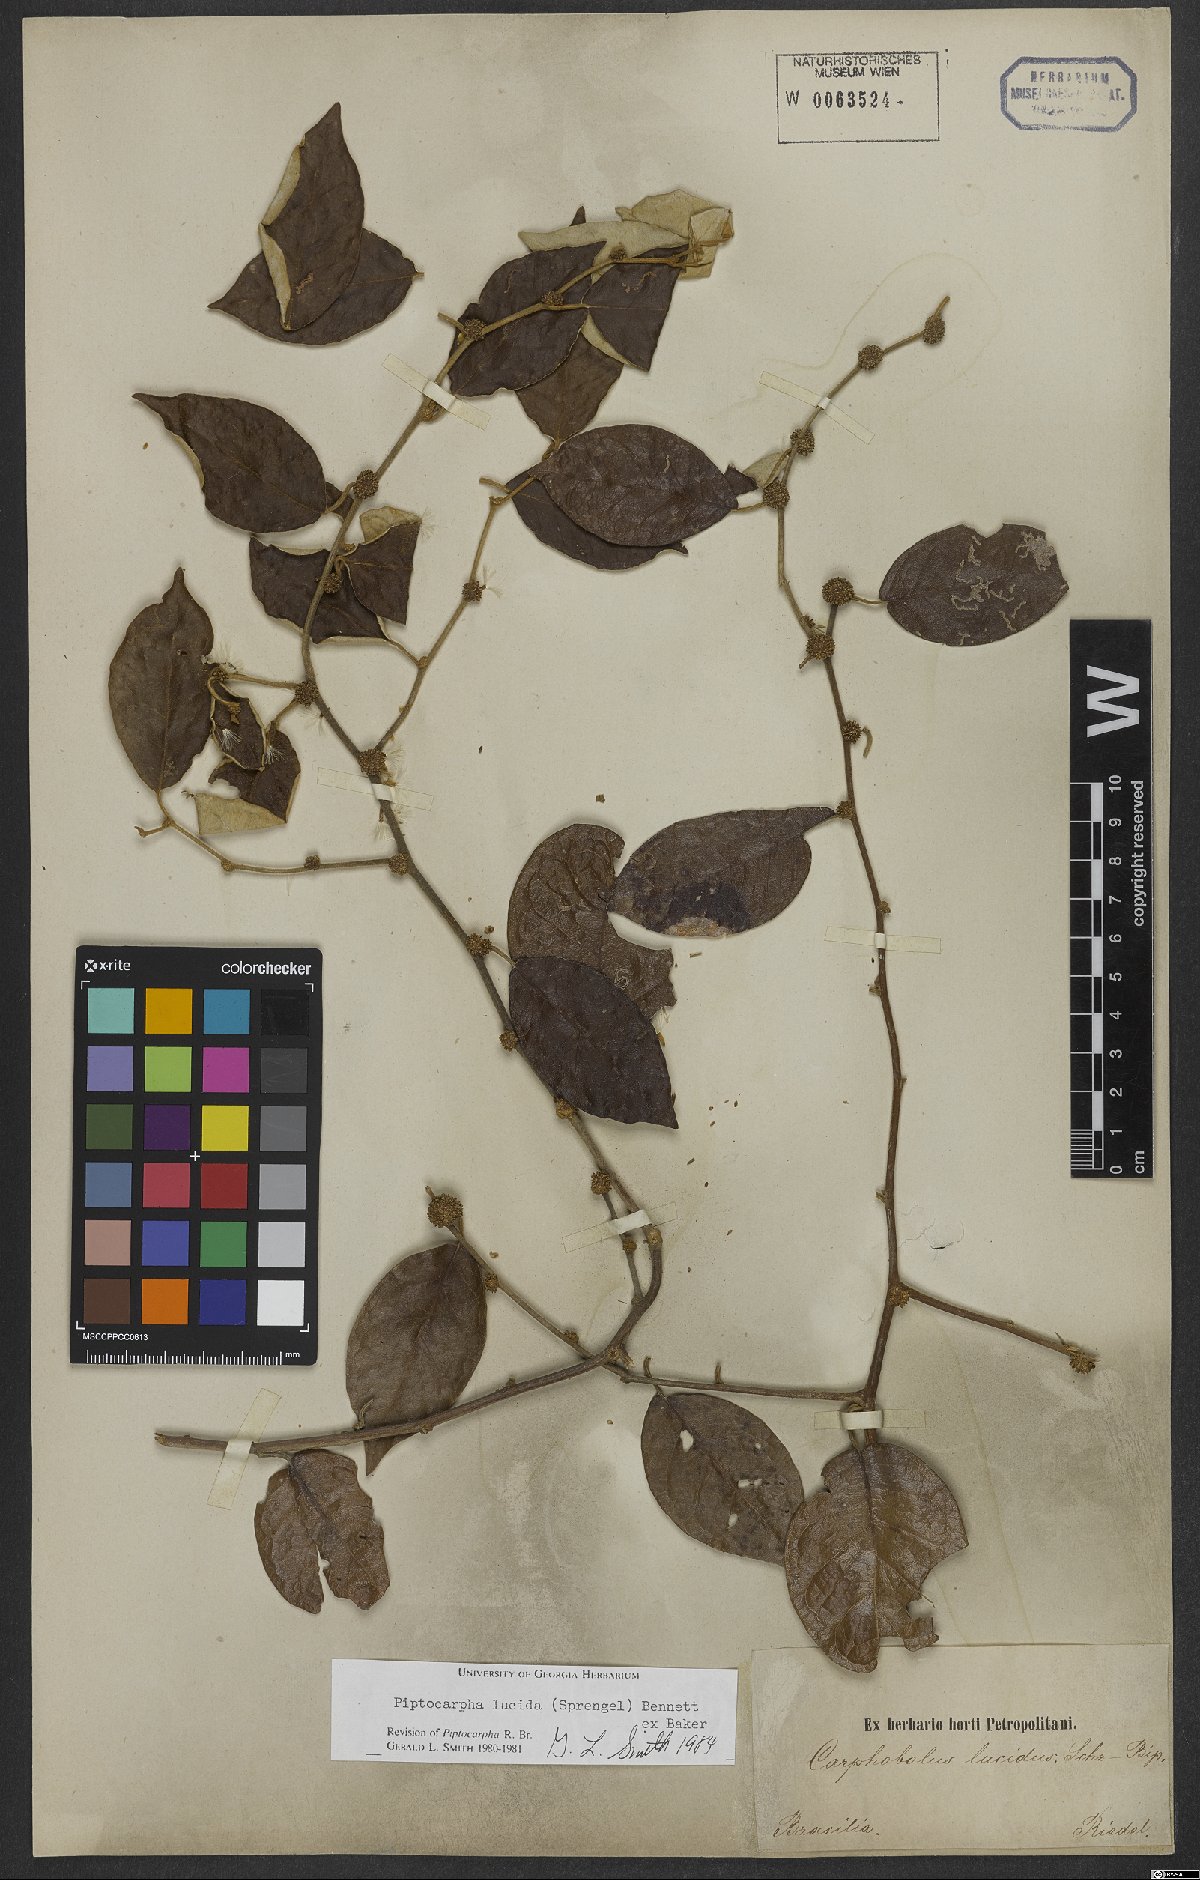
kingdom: Plantae
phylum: Tracheophyta
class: Magnoliopsida
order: Asterales
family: Asteraceae
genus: Piptocarpha
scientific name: Piptocarpha lucida
